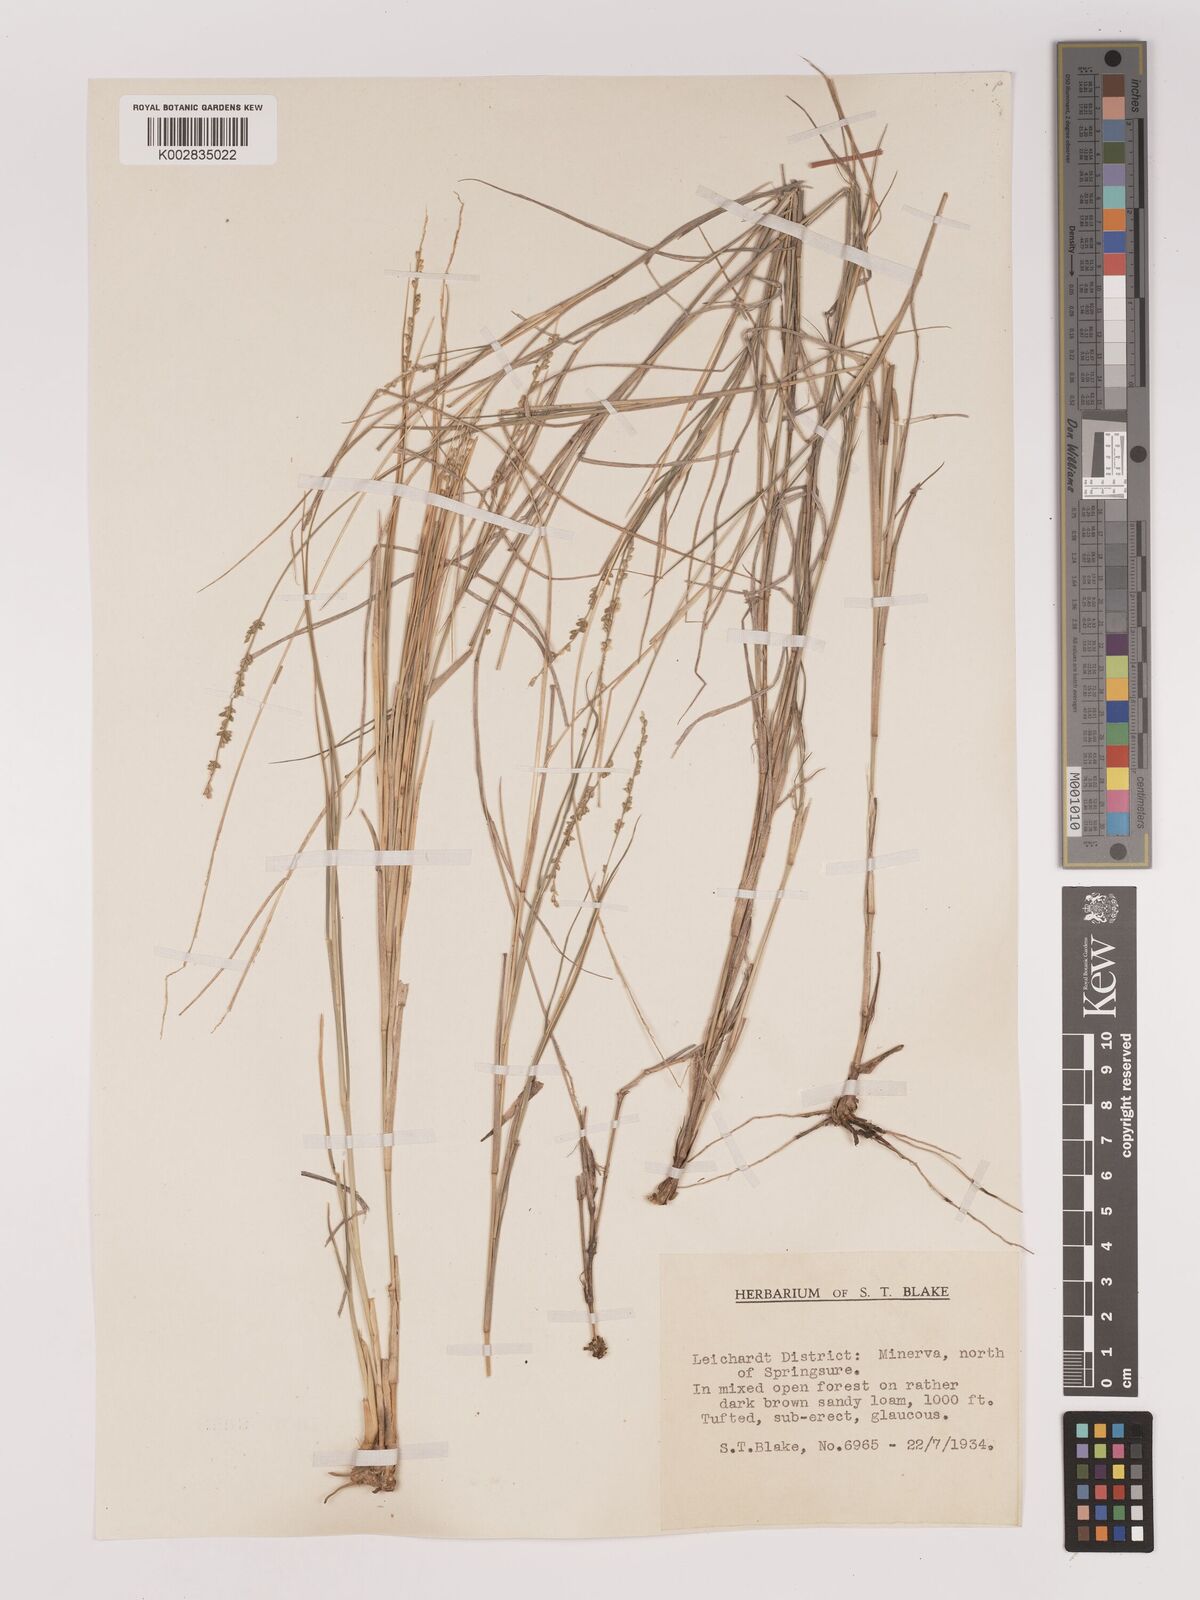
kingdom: Plantae
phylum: Tracheophyta
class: Liliopsida
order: Poales
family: Poaceae
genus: Setaria
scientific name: Setaria
